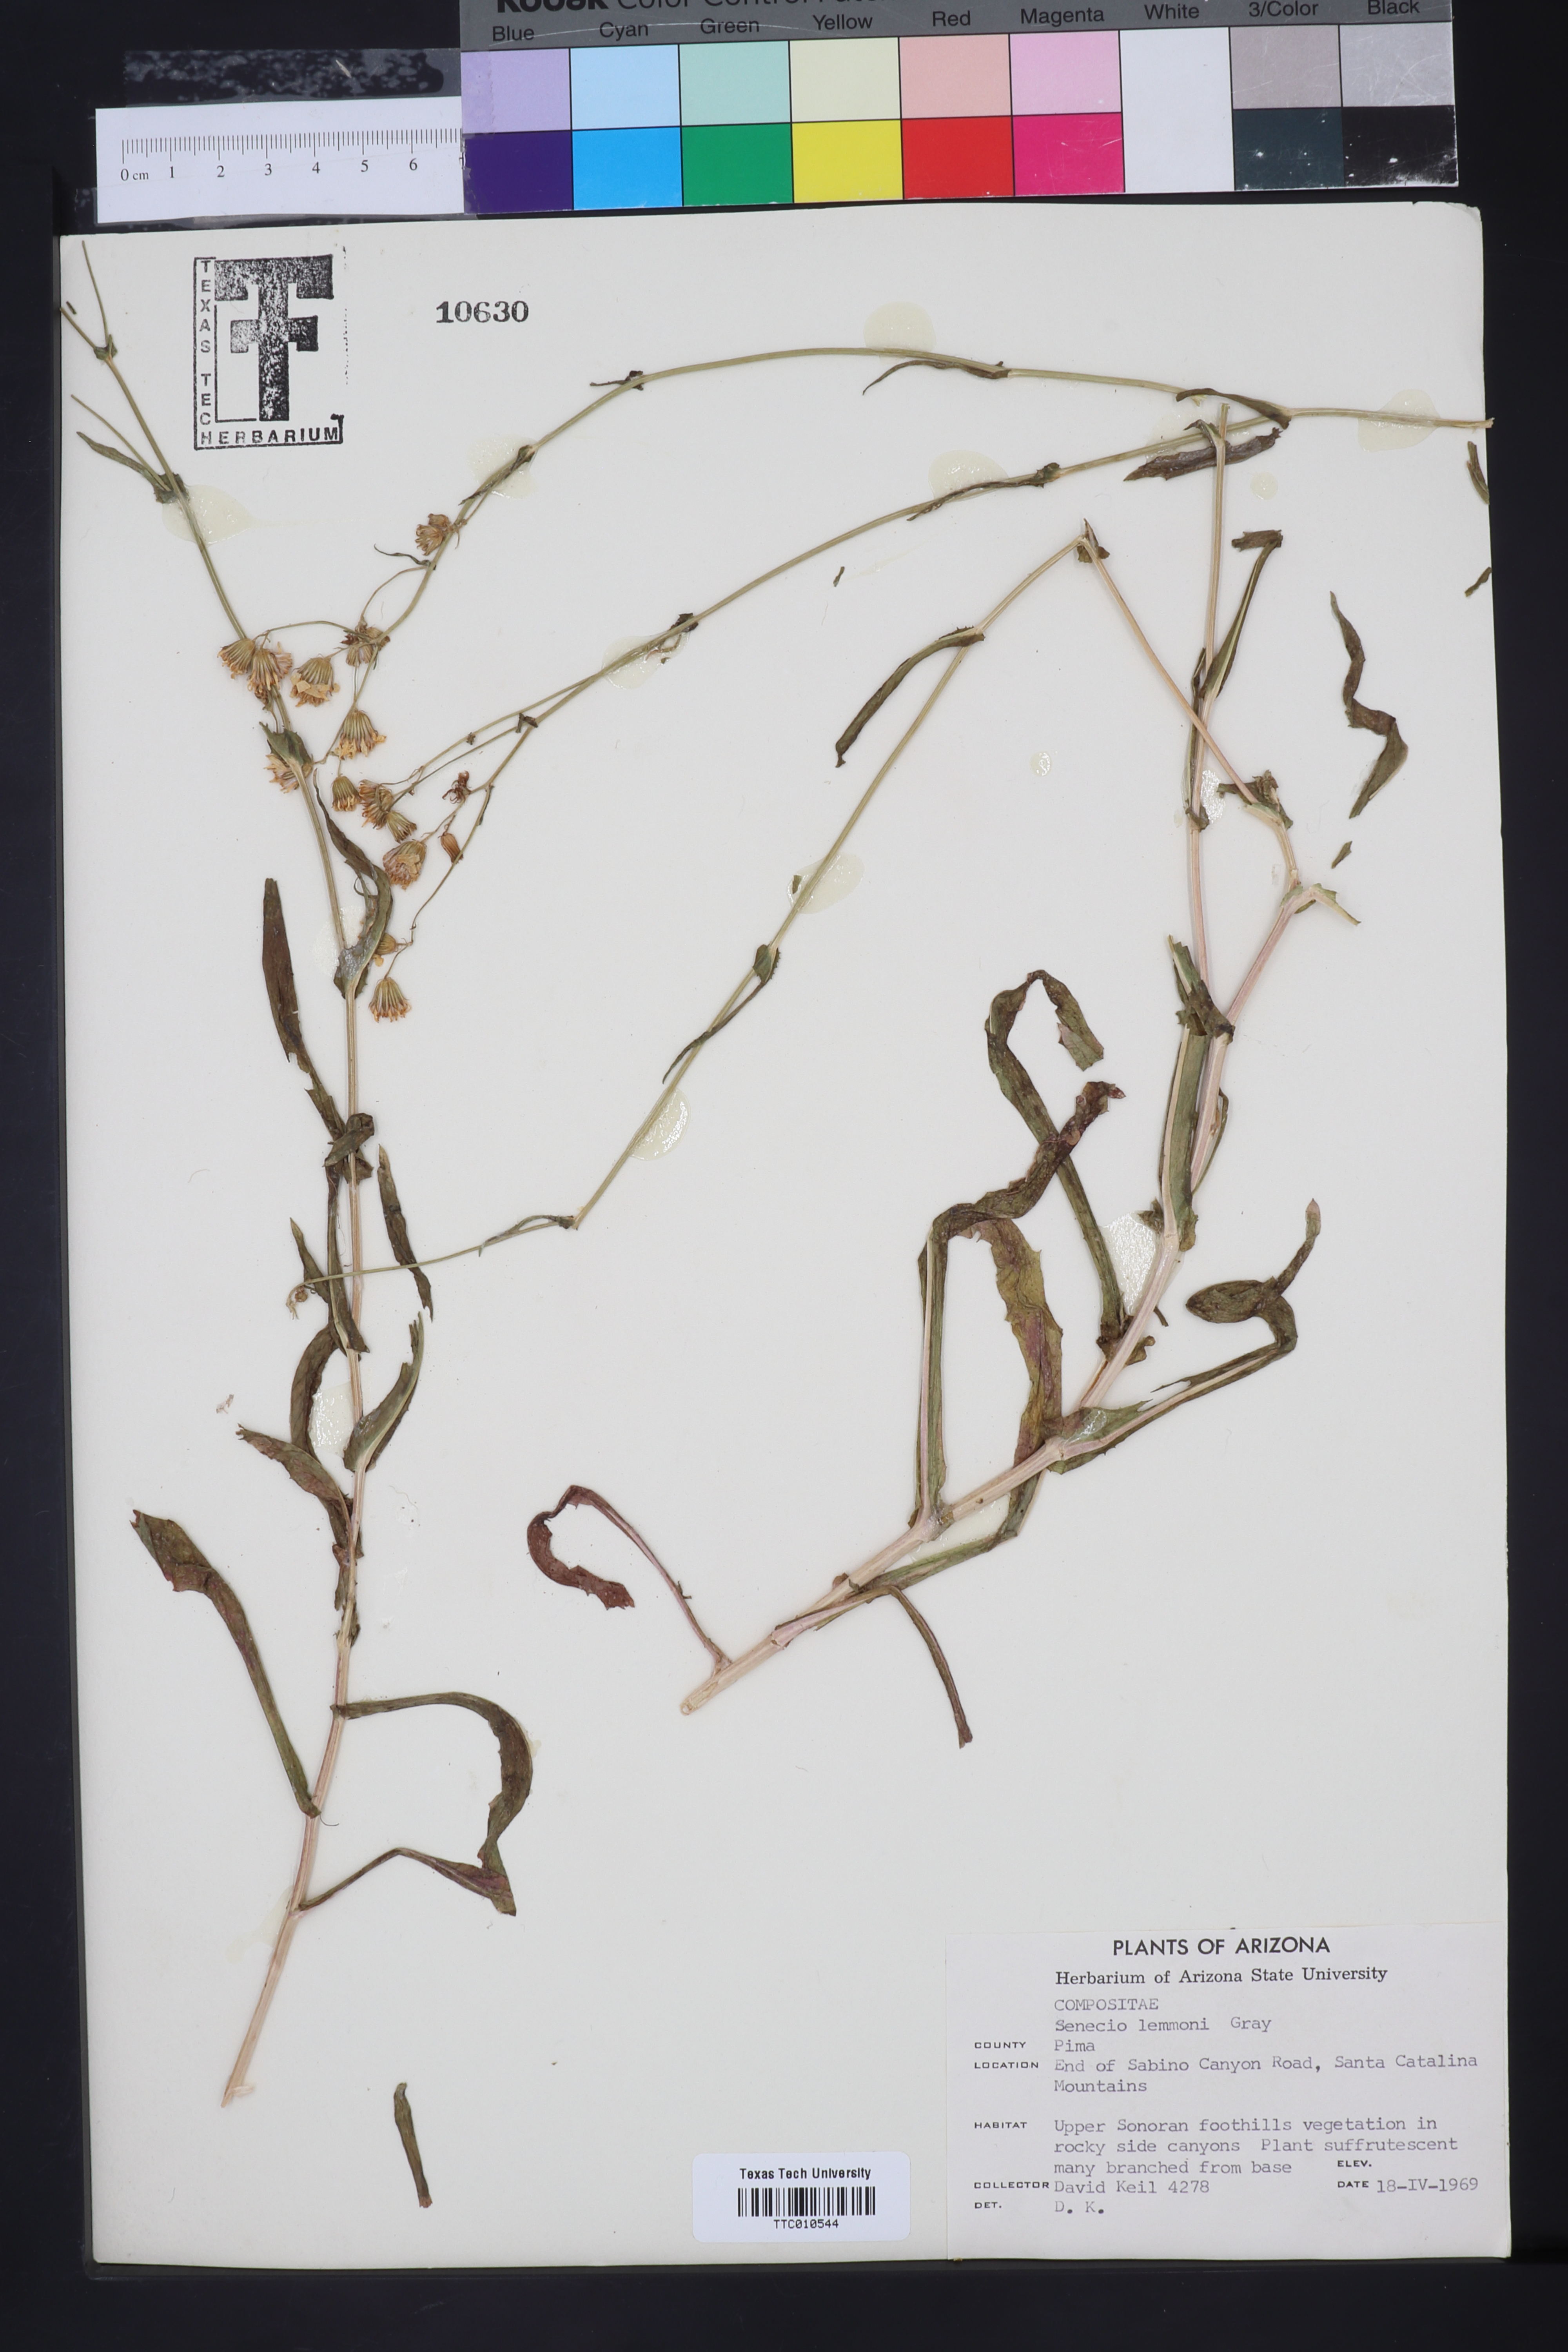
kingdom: Plantae
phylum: Tracheophyta
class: Magnoliopsida
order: Asterales
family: Asteraceae
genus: Senecio
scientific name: Senecio lemmonii
